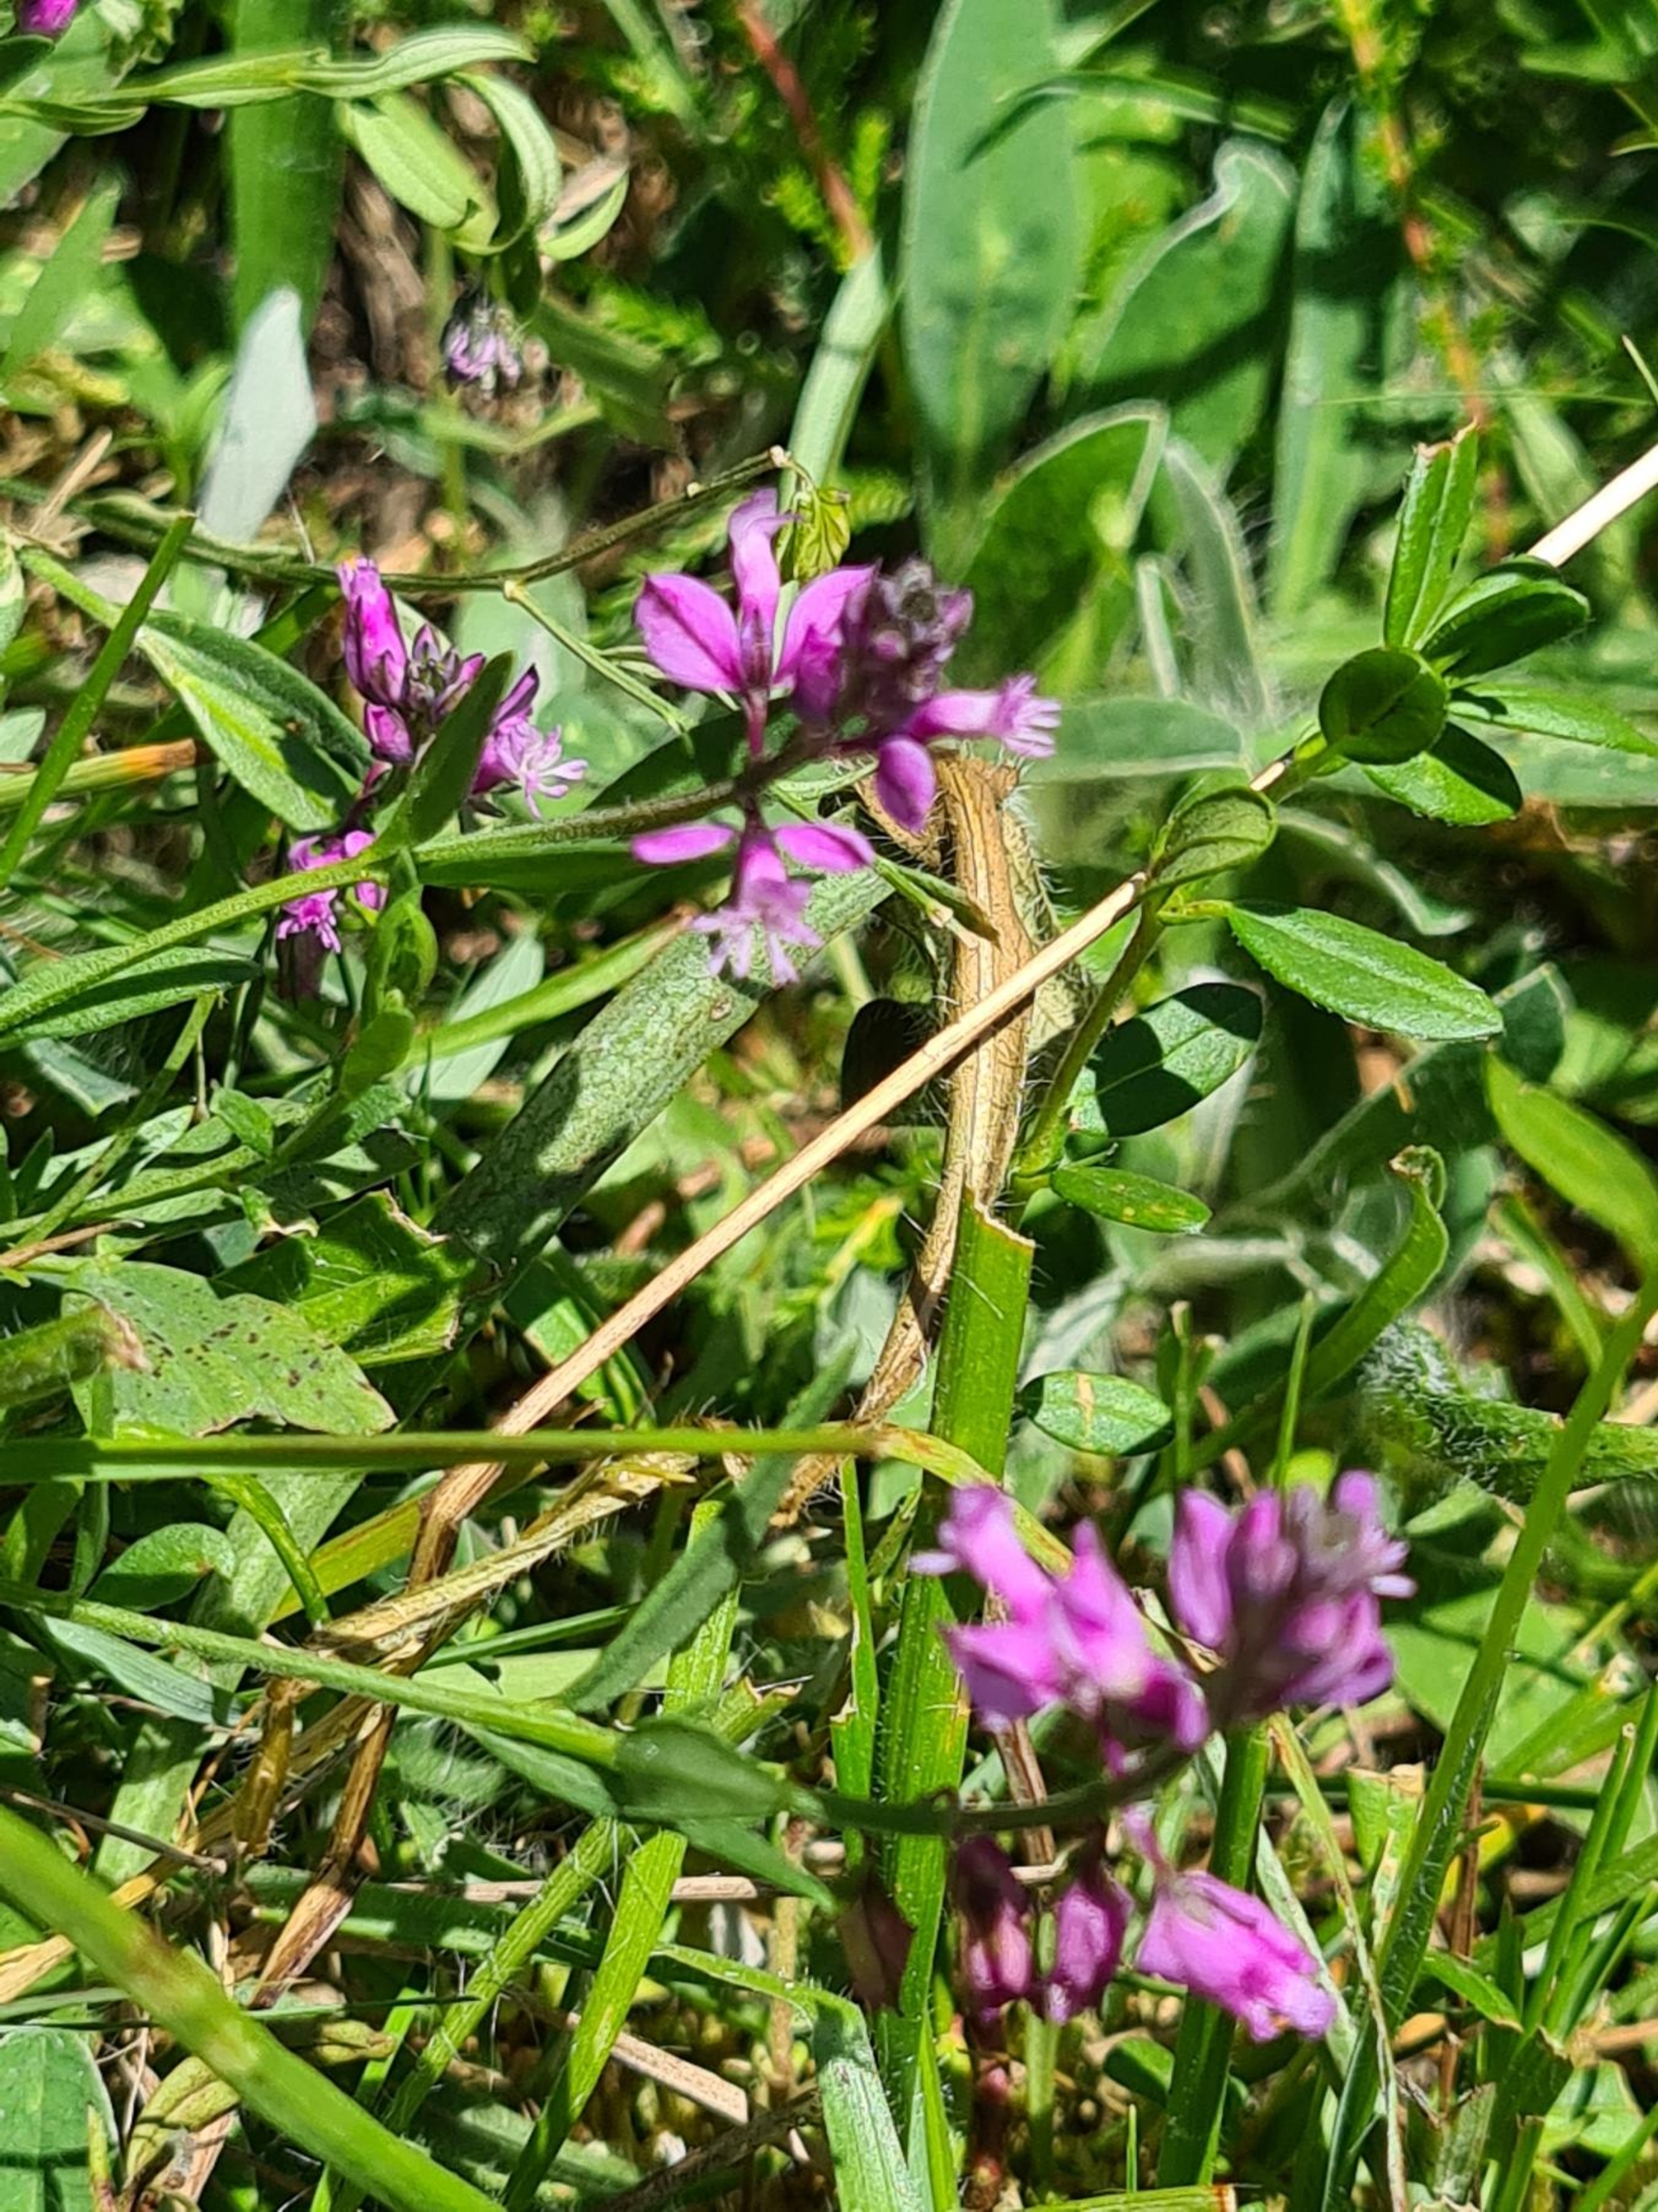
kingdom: Plantae
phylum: Tracheophyta
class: Magnoliopsida
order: Fabales
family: Polygalaceae
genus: Polygala
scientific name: Polygala vulgaris
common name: Almindelig mælkeurt
